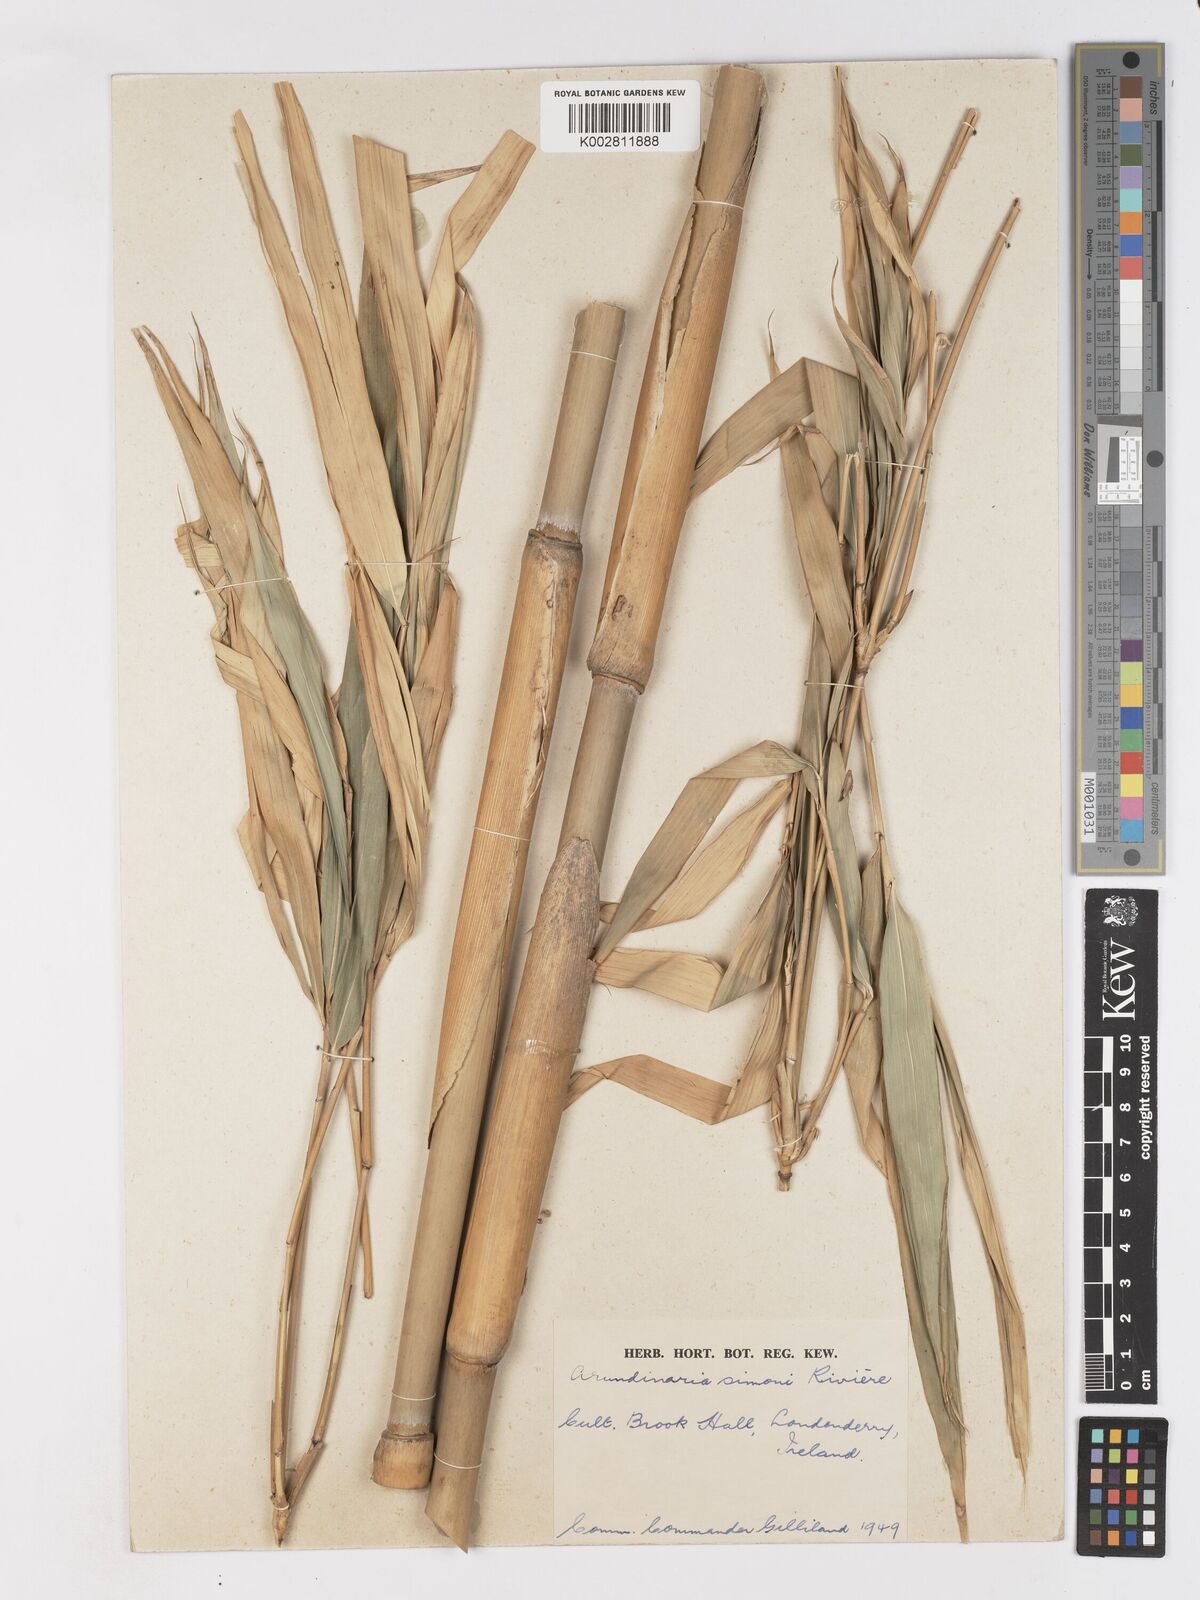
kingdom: Plantae
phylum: Tracheophyta
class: Liliopsida
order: Poales
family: Poaceae
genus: Pleioblastus
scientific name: Pleioblastus simonii
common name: Simon bamboo
